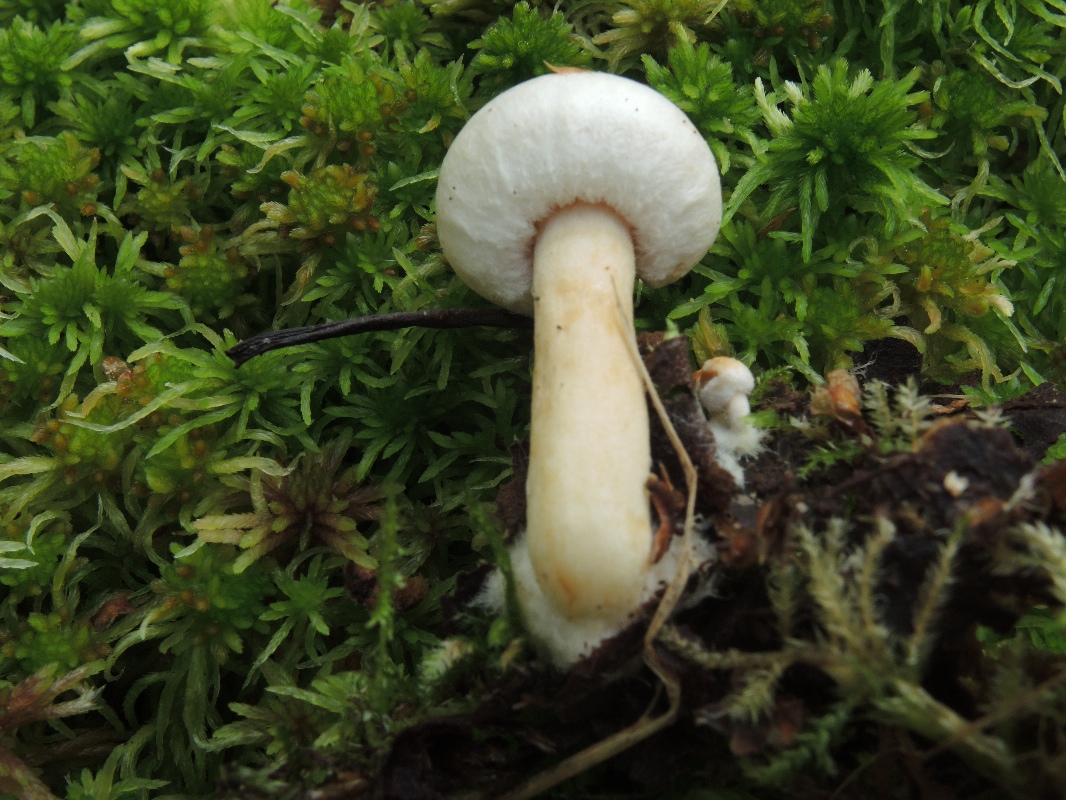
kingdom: Fungi
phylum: Basidiomycota
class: Agaricomycetes
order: Russulales
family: Russulaceae
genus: Lactarius
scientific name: Lactarius scoticus
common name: tørve-mælkehat
